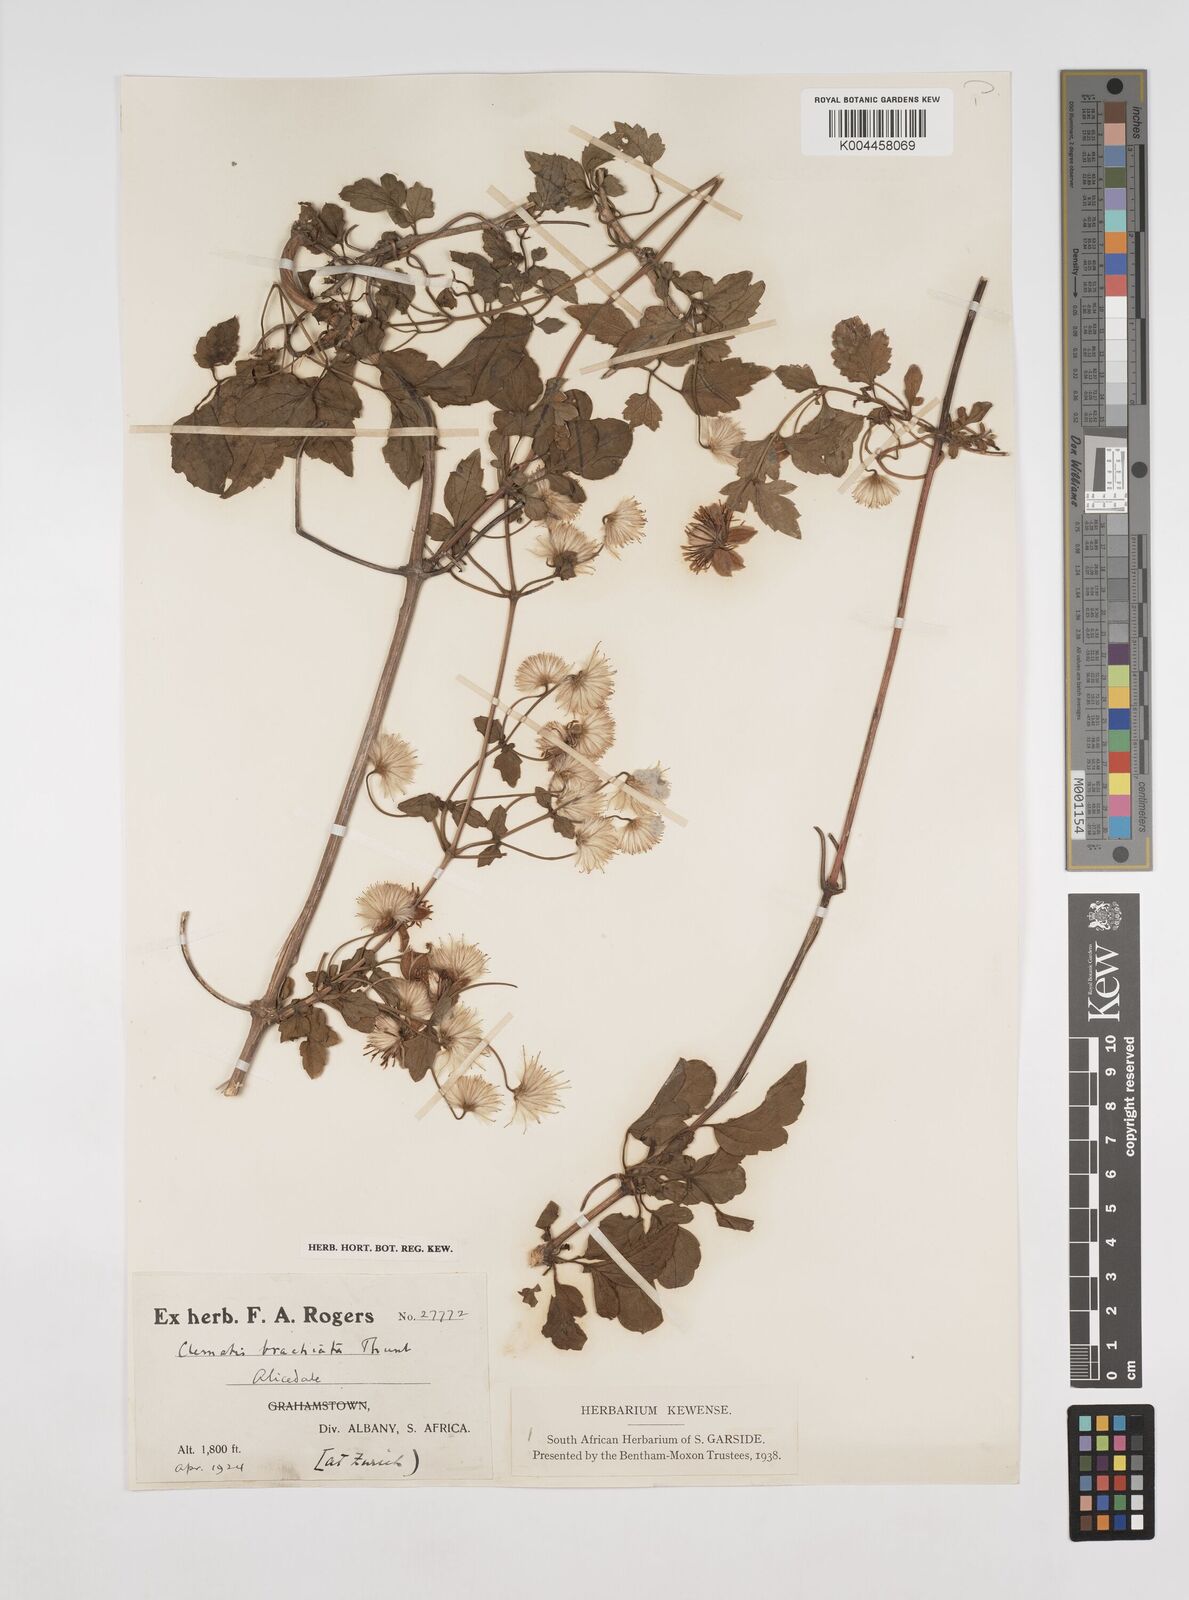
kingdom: Plantae
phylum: Tracheophyta
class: Magnoliopsida
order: Ranunculales
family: Ranunculaceae
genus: Clematis
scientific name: Clematis brachiata
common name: Traveler's-joy
